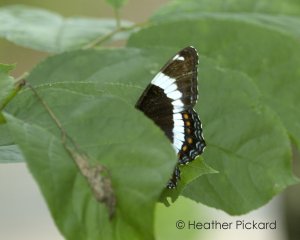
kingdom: Animalia
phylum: Arthropoda
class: Insecta
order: Lepidoptera
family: Nymphalidae
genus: Limenitis
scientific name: Limenitis arthemis
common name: Red-spotted Admiral
